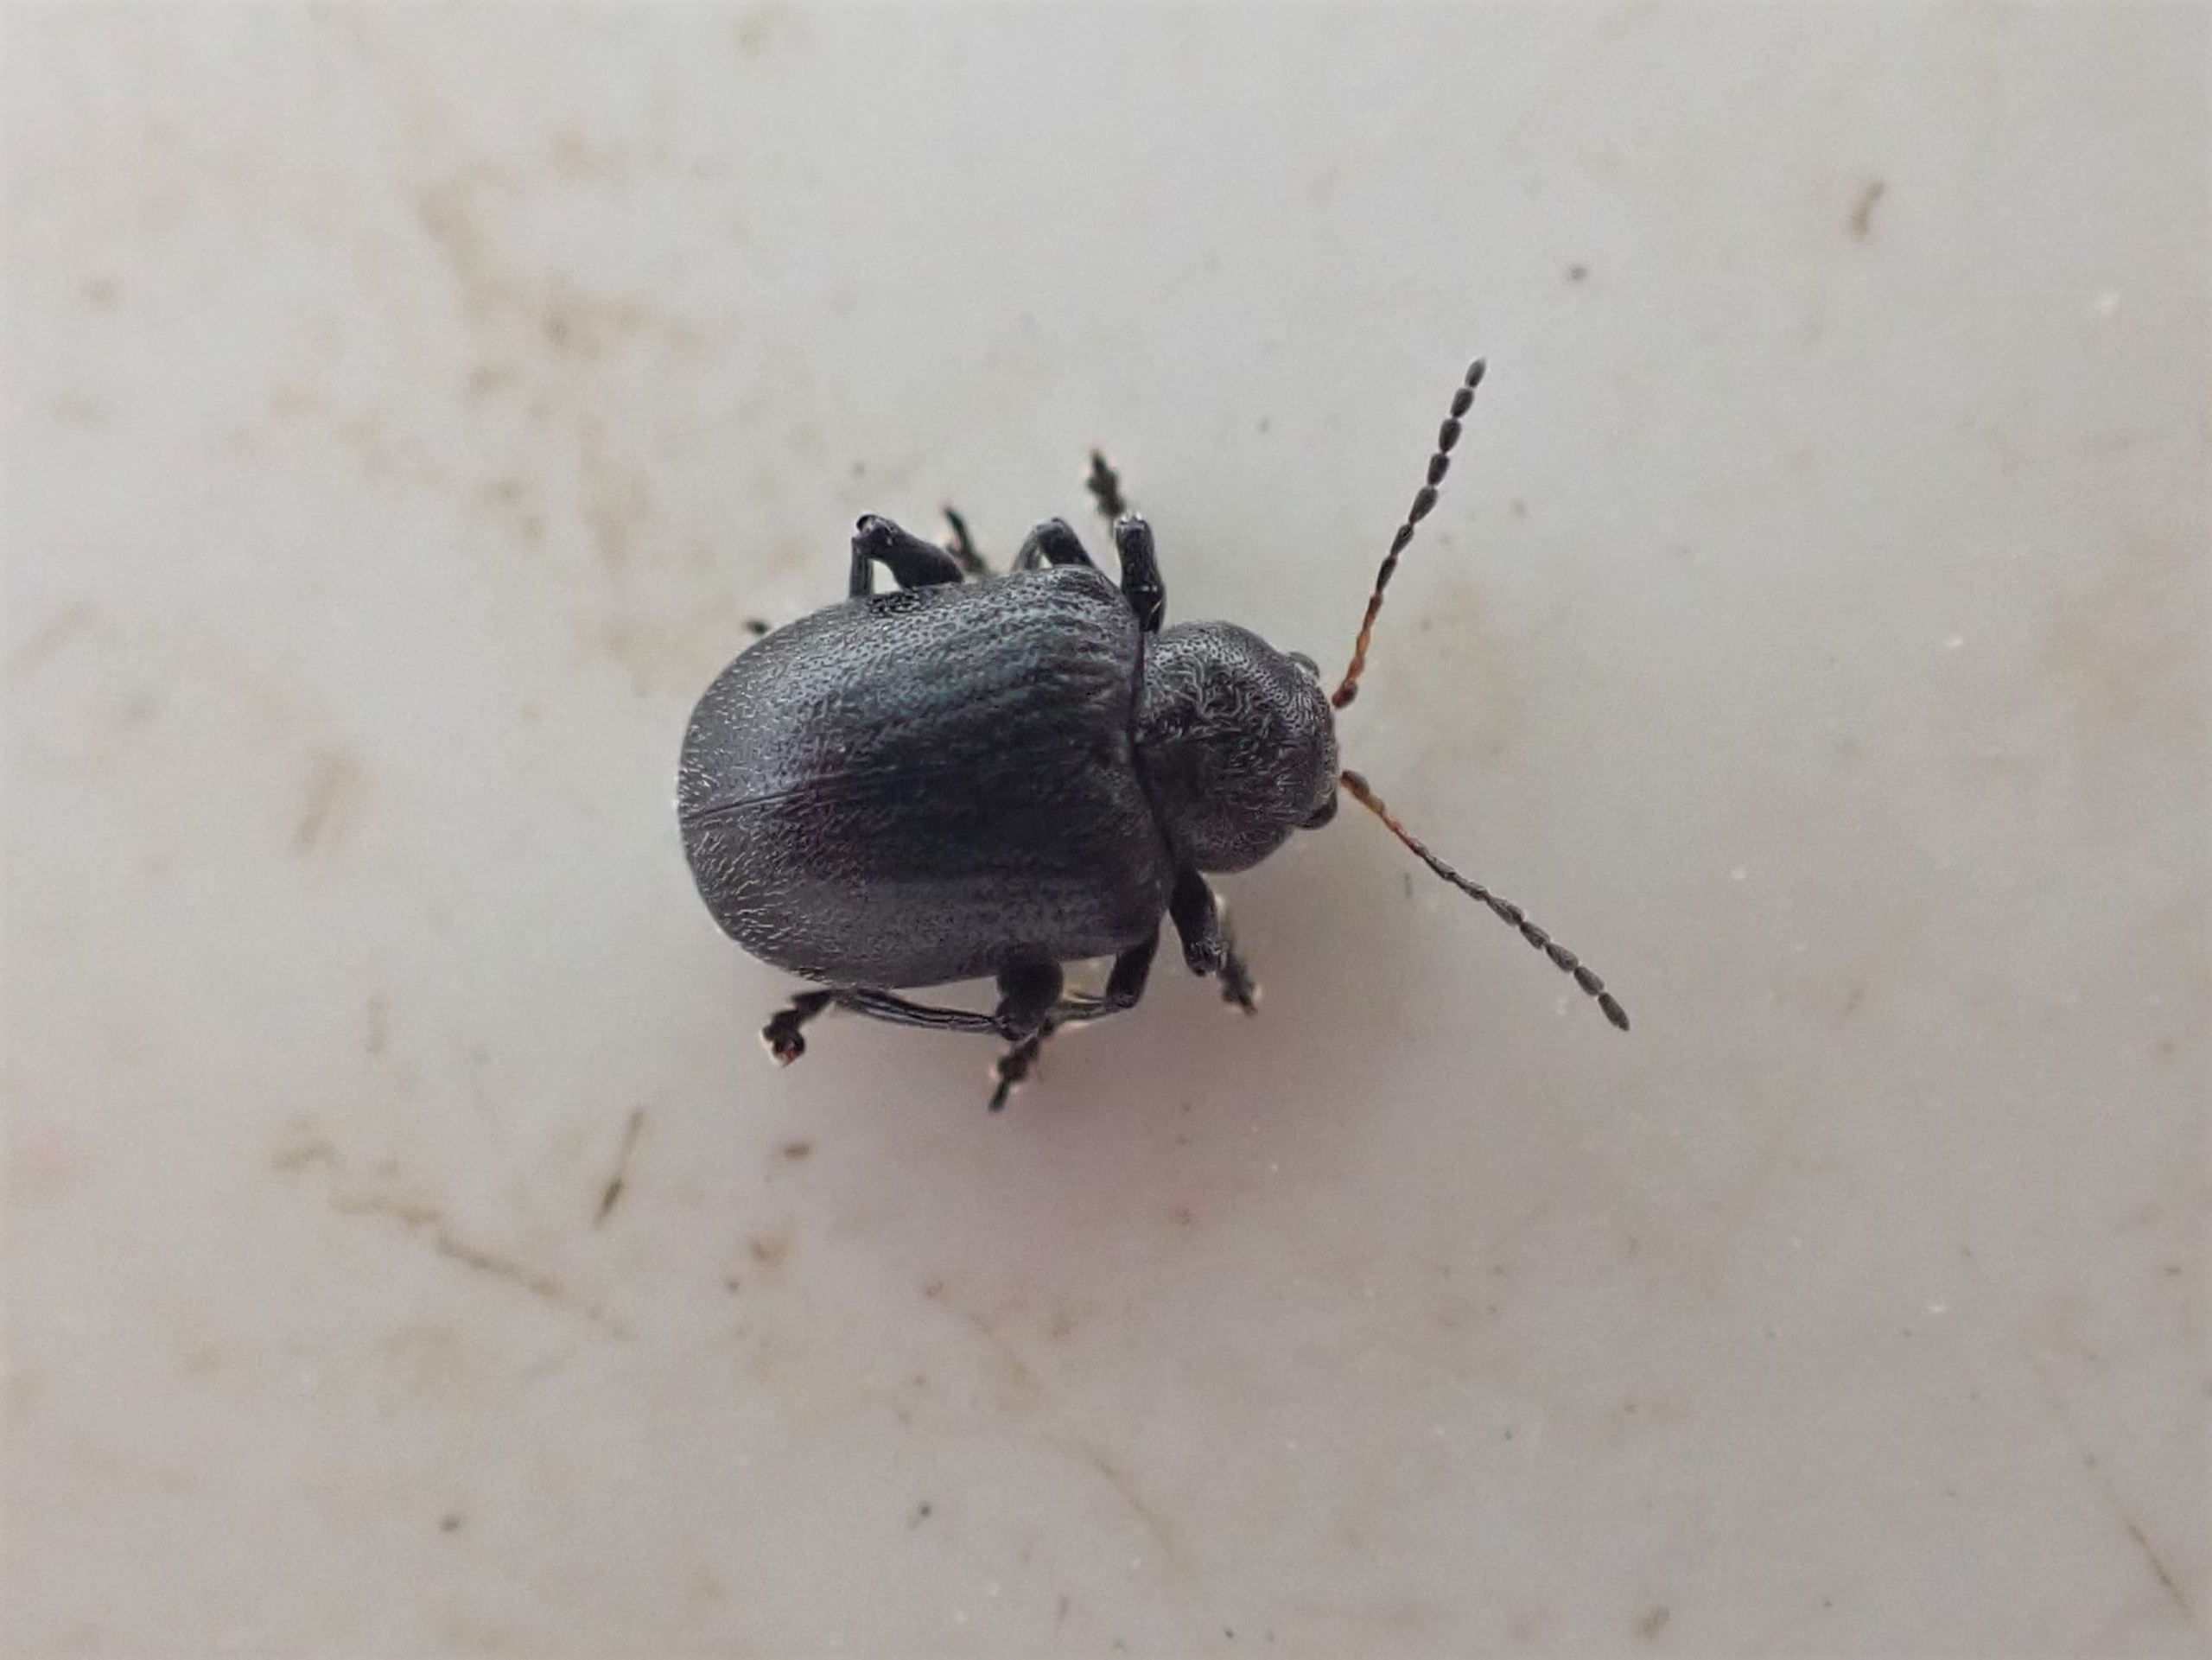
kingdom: Animalia
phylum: Arthropoda
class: Insecta
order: Coleoptera
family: Chrysomelidae
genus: Bromius
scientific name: Bromius obscurus
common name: Gederamsbille
